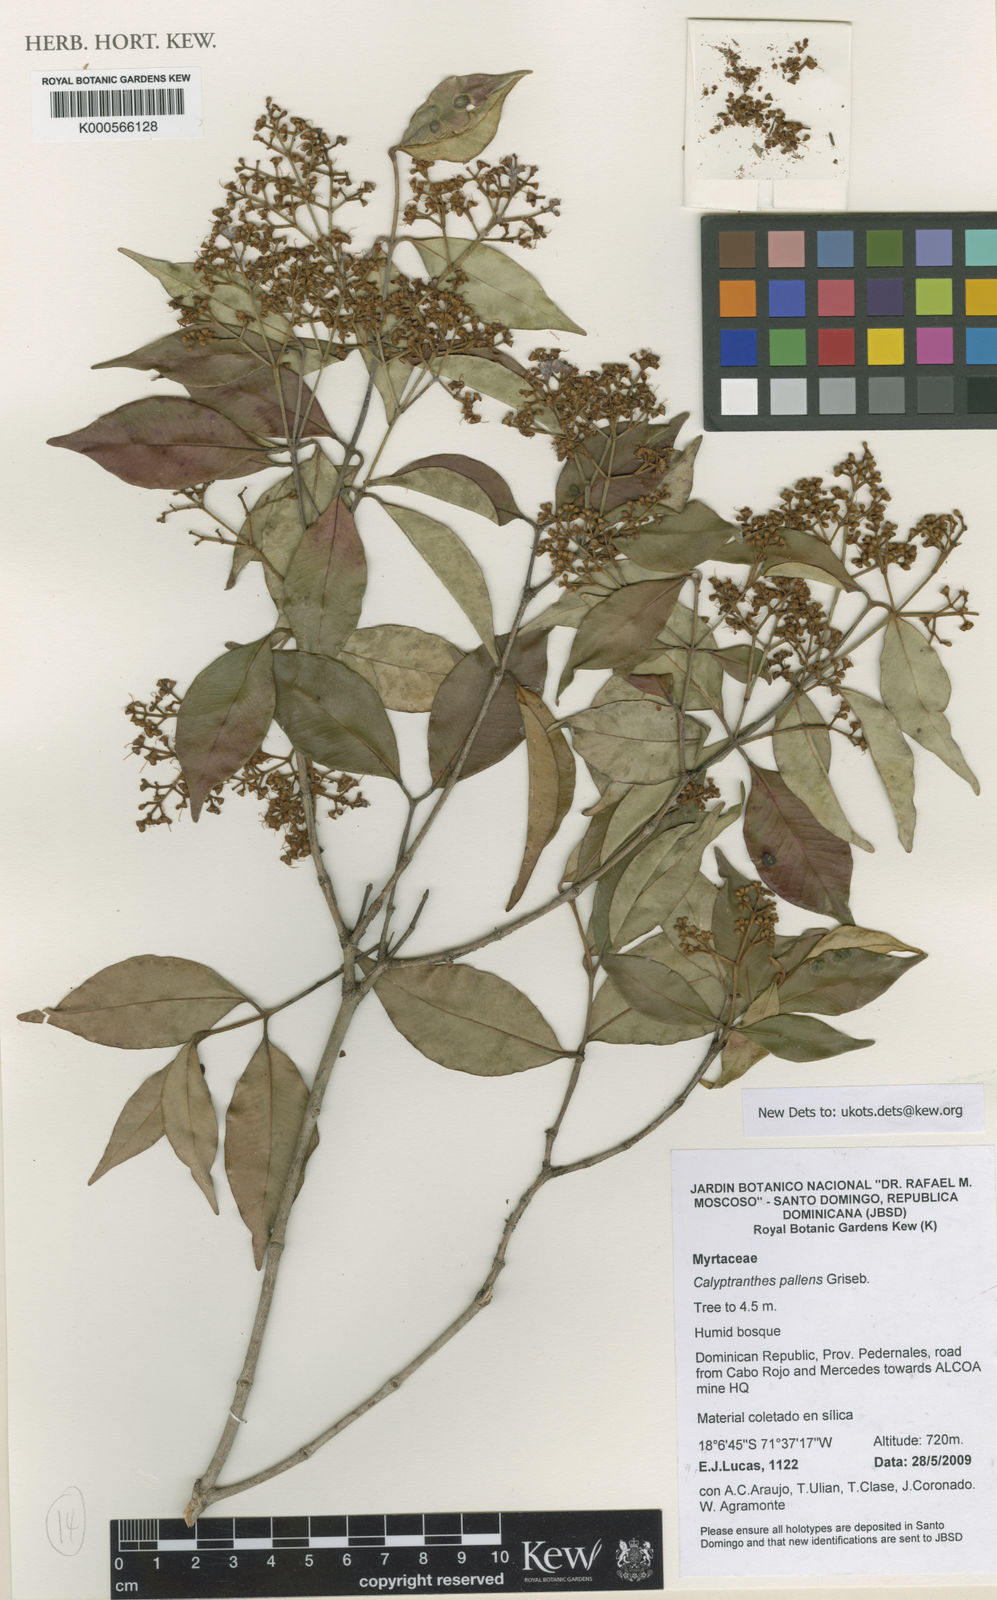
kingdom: Plantae
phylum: Tracheophyta
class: Magnoliopsida
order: Myrtales
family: Myrtaceae
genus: Myrcia
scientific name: Myrcia neopallens
